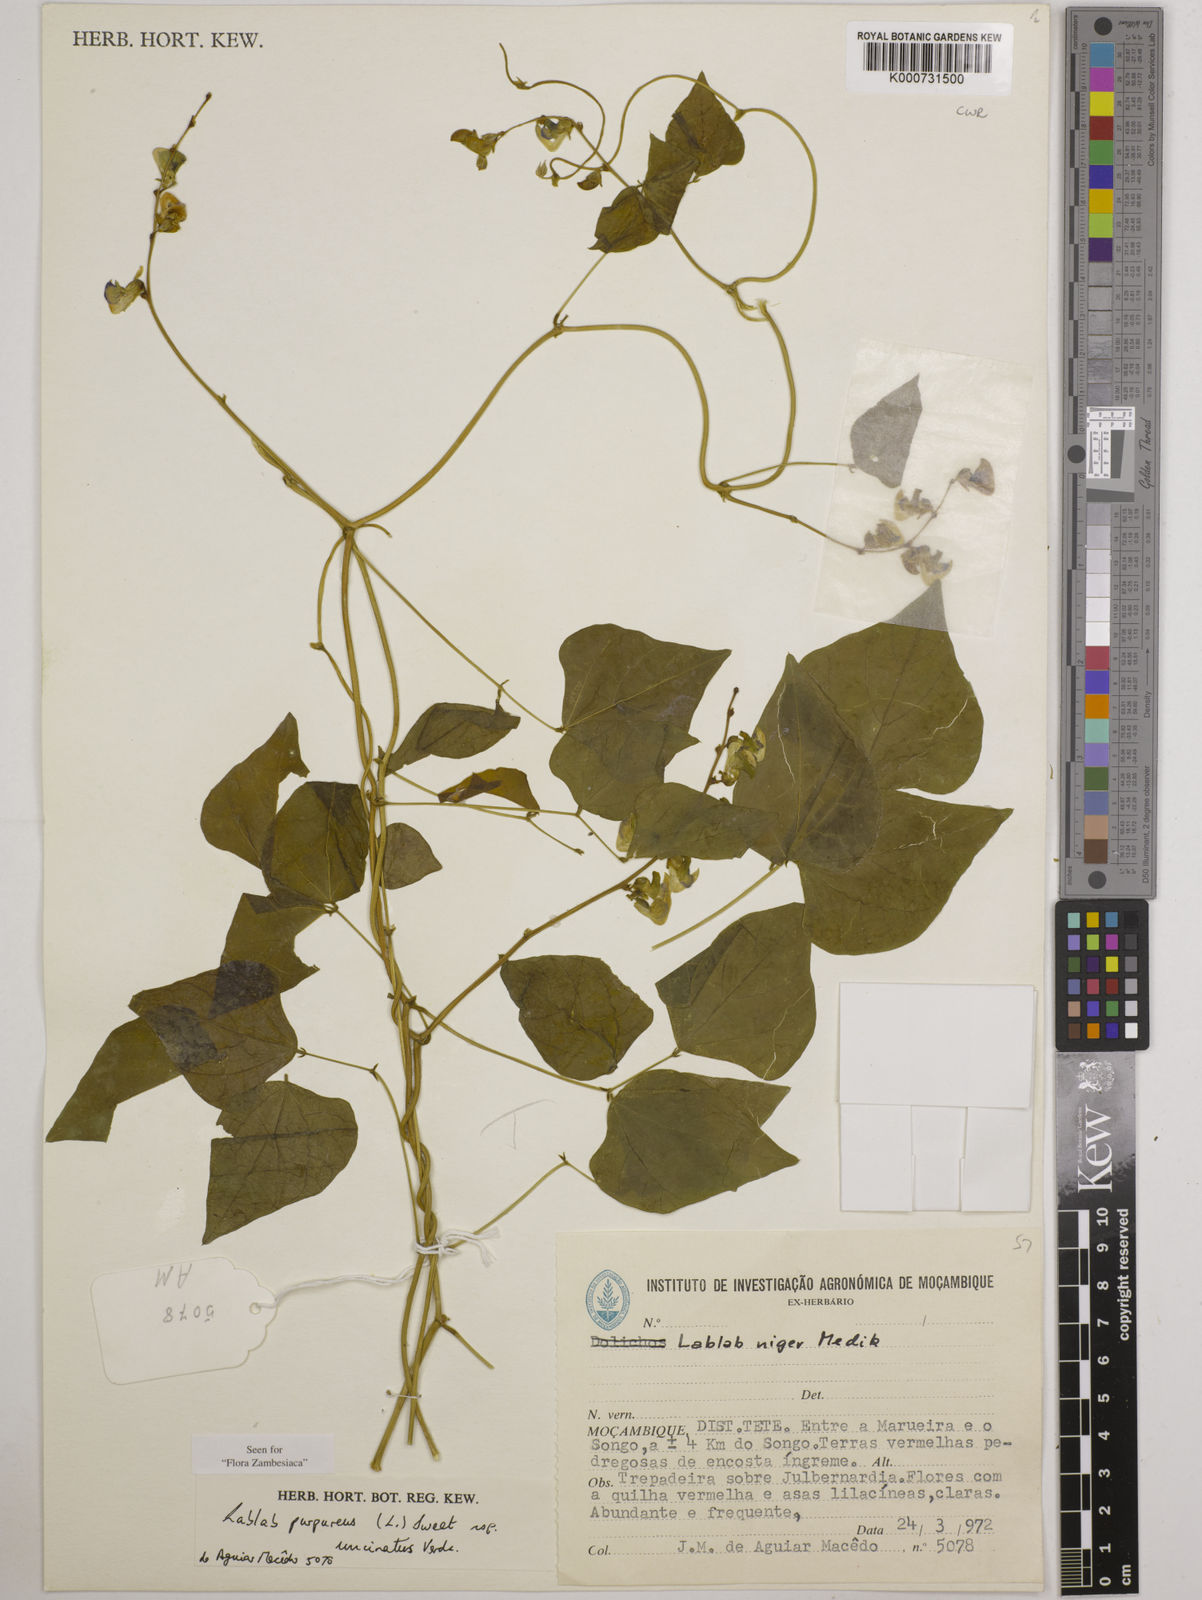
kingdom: Plantae
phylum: Tracheophyta
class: Magnoliopsida
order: Fabales
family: Fabaceae
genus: Lablab
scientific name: Lablab purpureus
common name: Lablab-bean
